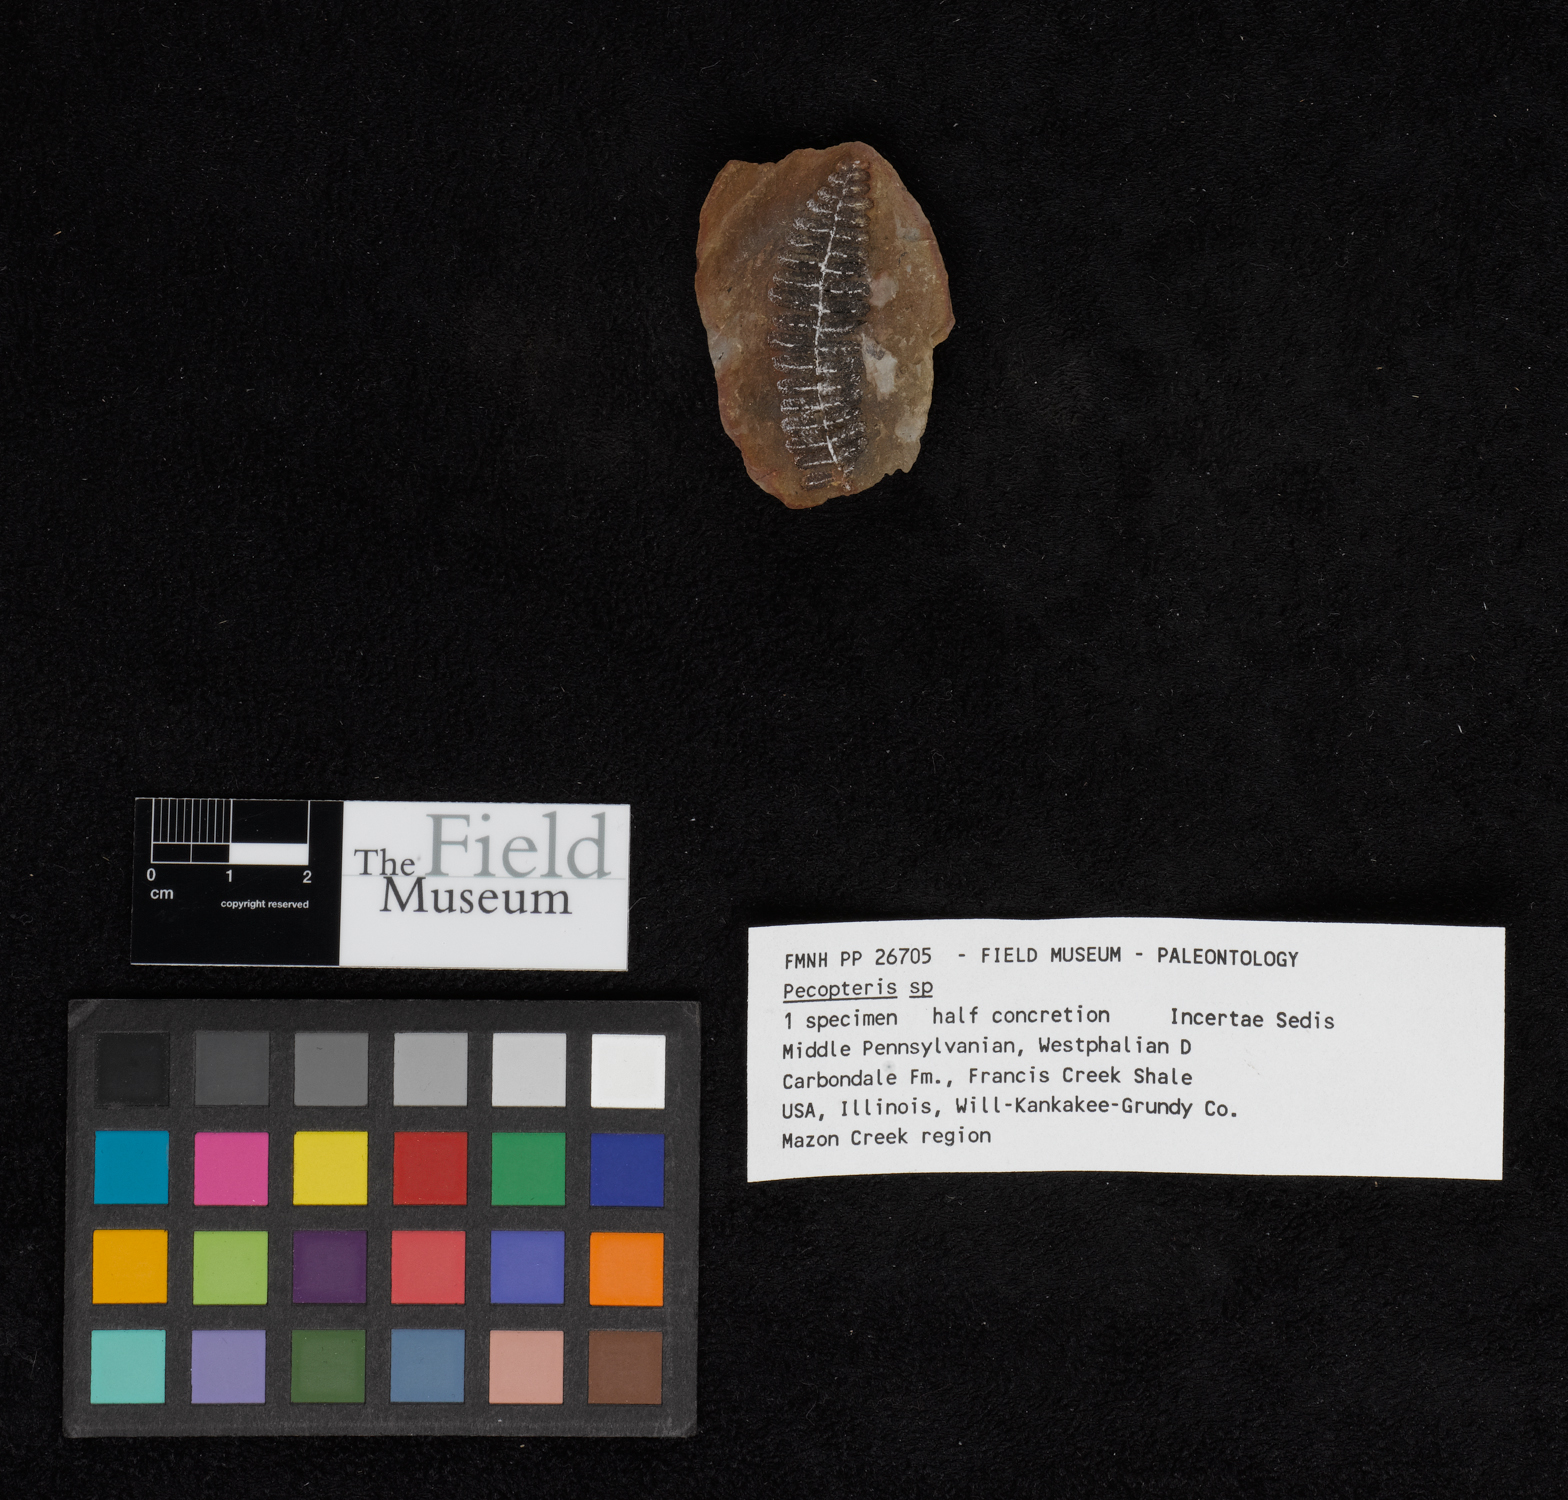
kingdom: Plantae
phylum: Tracheophyta
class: Polypodiopsida
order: Marattiales
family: Asterothecaceae
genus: Pecopteris
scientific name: Pecopteris
